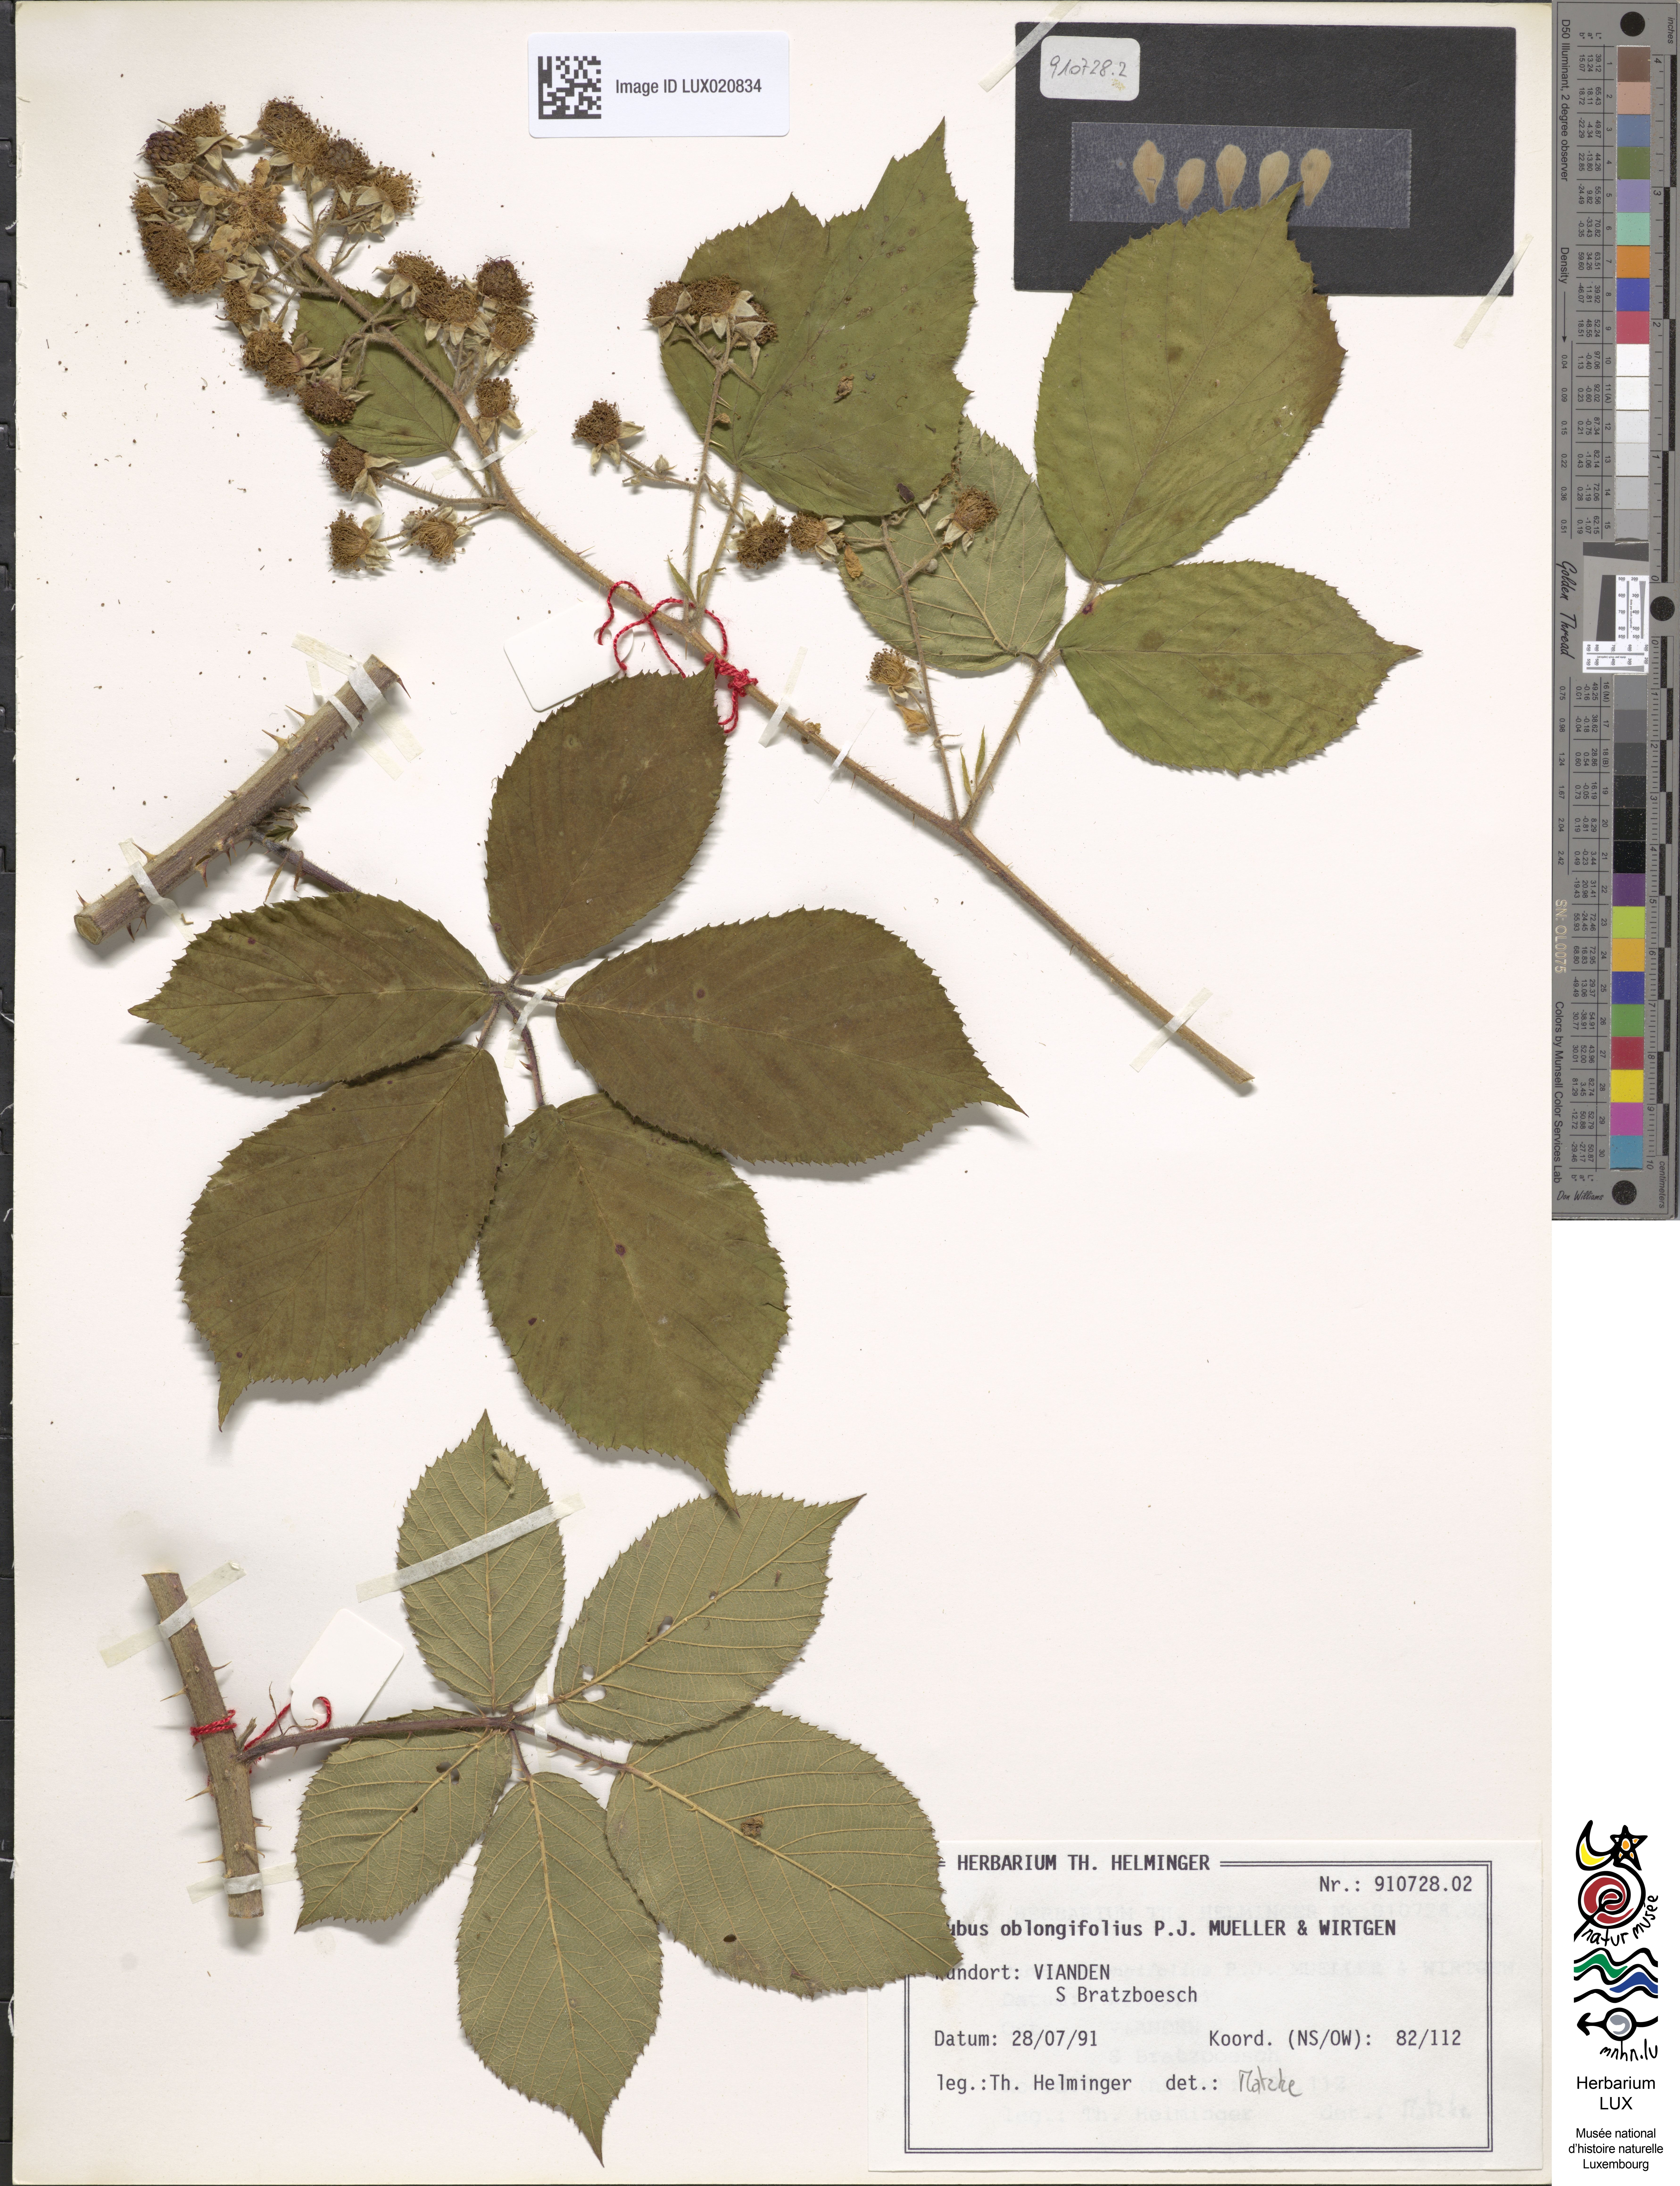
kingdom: Plantae
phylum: Tracheophyta
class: Magnoliopsida
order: Rosales
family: Rosaceae
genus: Rubus
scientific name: Rubus oblongifolius
